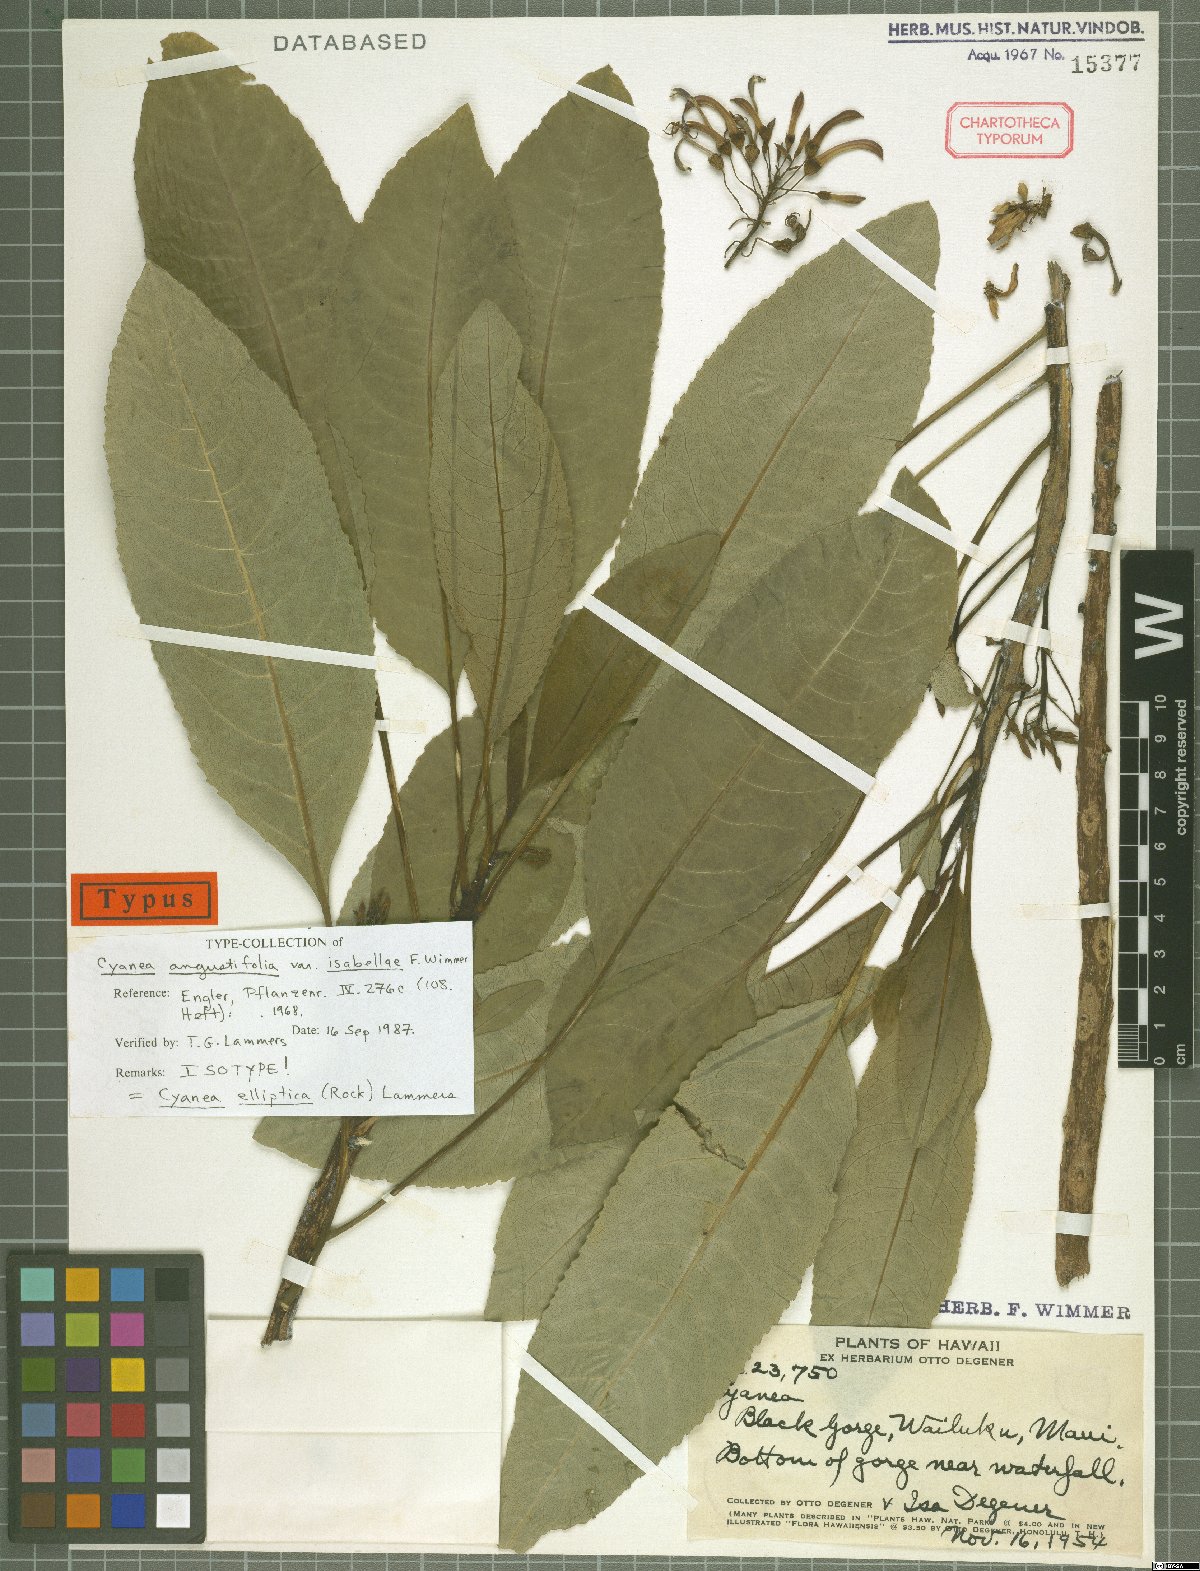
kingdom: Plantae
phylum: Tracheophyta
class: Magnoliopsida
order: Asterales
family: Campanulaceae
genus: Cyanea
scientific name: Cyanea elliptica
